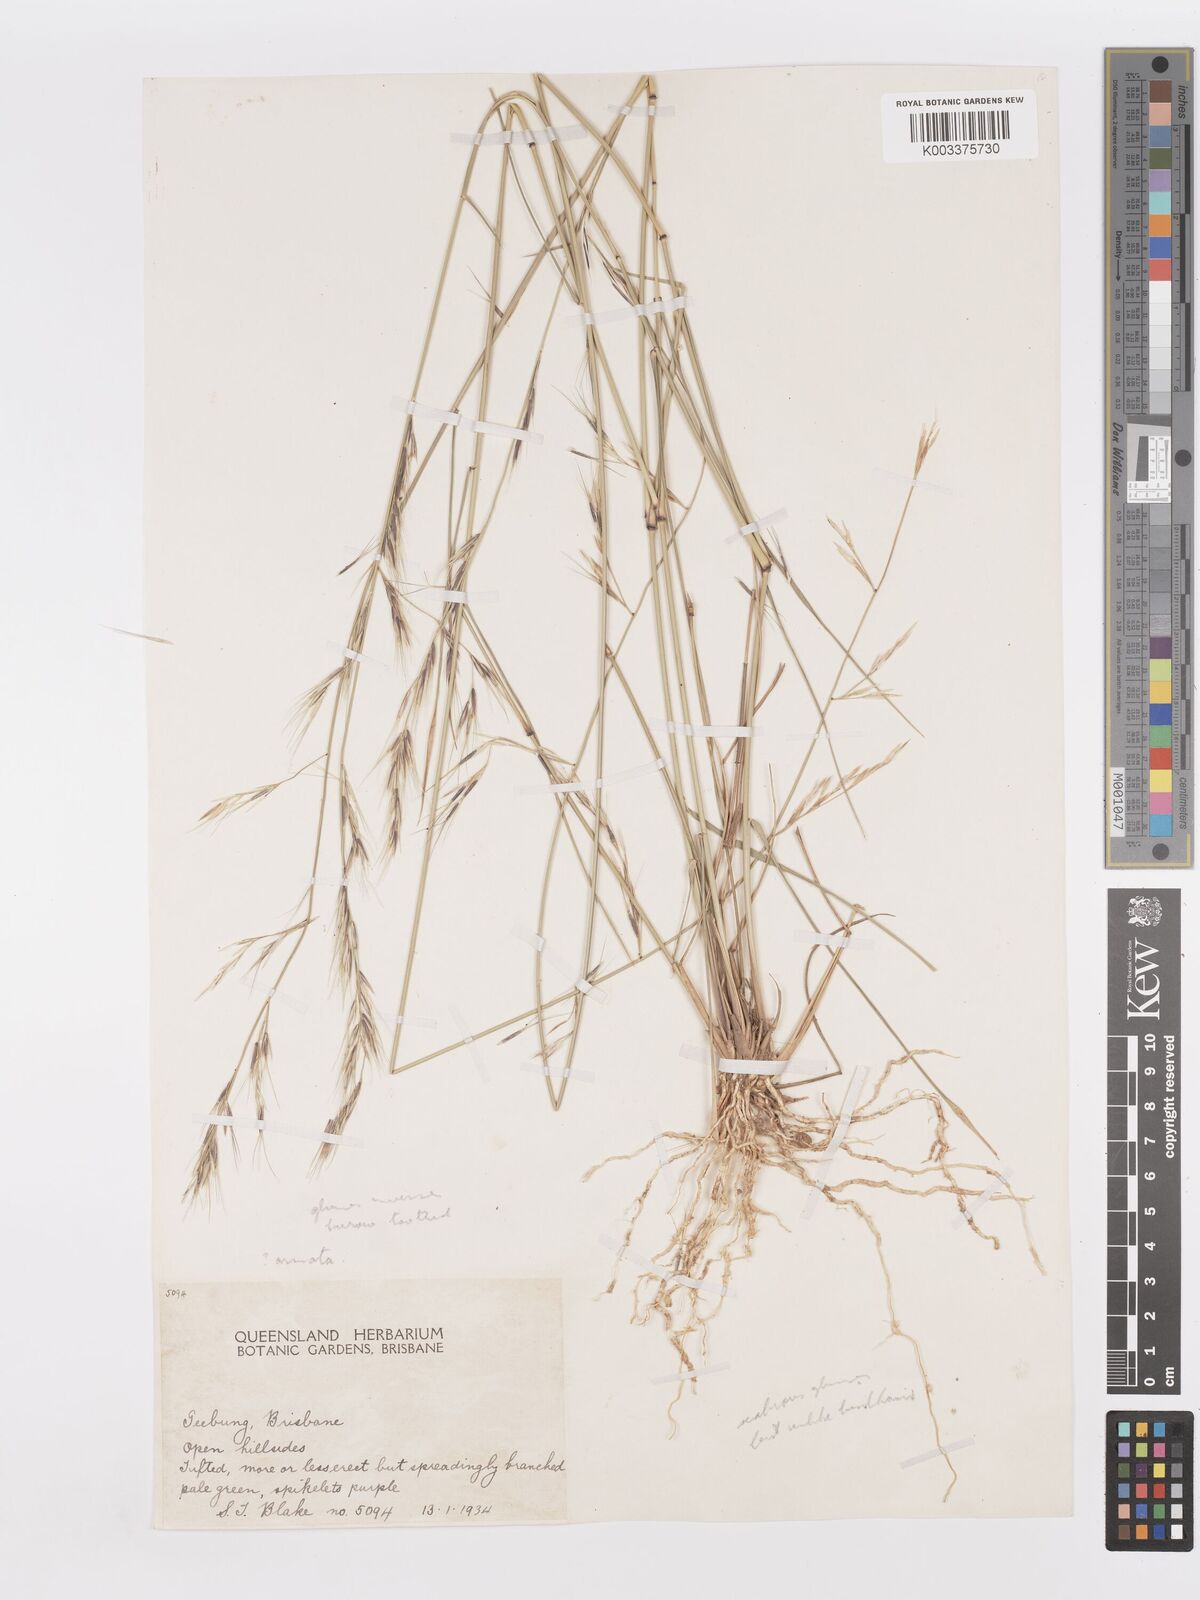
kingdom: Plantae
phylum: Tracheophyta
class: Liliopsida
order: Poales
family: Poaceae
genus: Aristida
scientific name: Aristida
